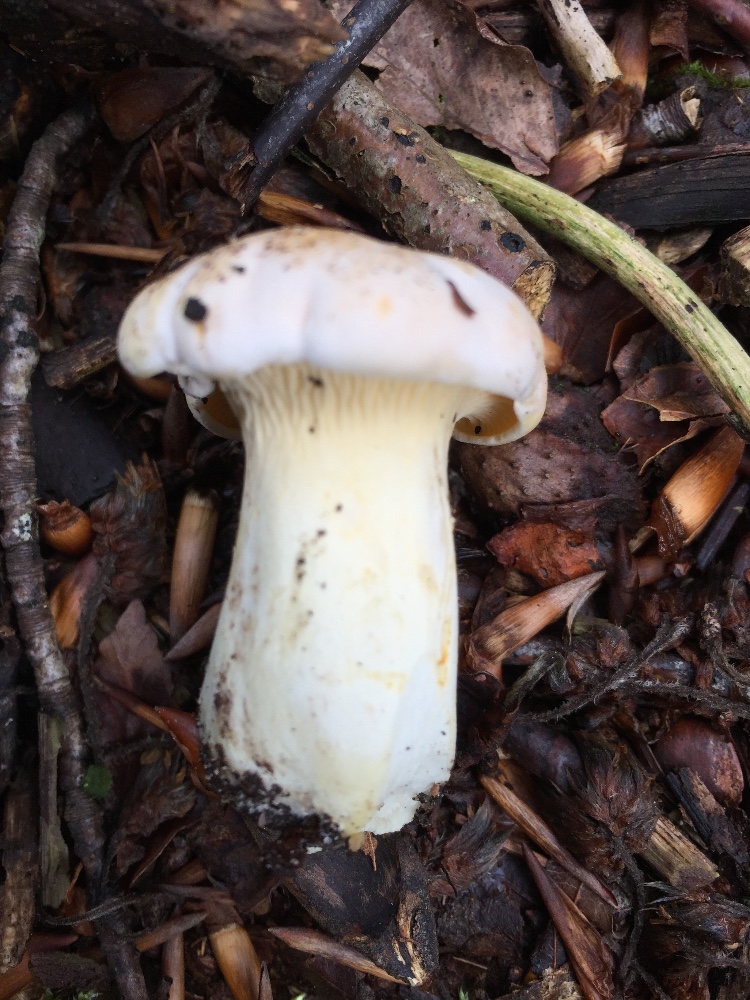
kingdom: Fungi
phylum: Basidiomycota
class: Agaricomycetes
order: Cantharellales
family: Hydnaceae
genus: Cantharellus
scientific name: Cantharellus pallens
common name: bleg kantarel
